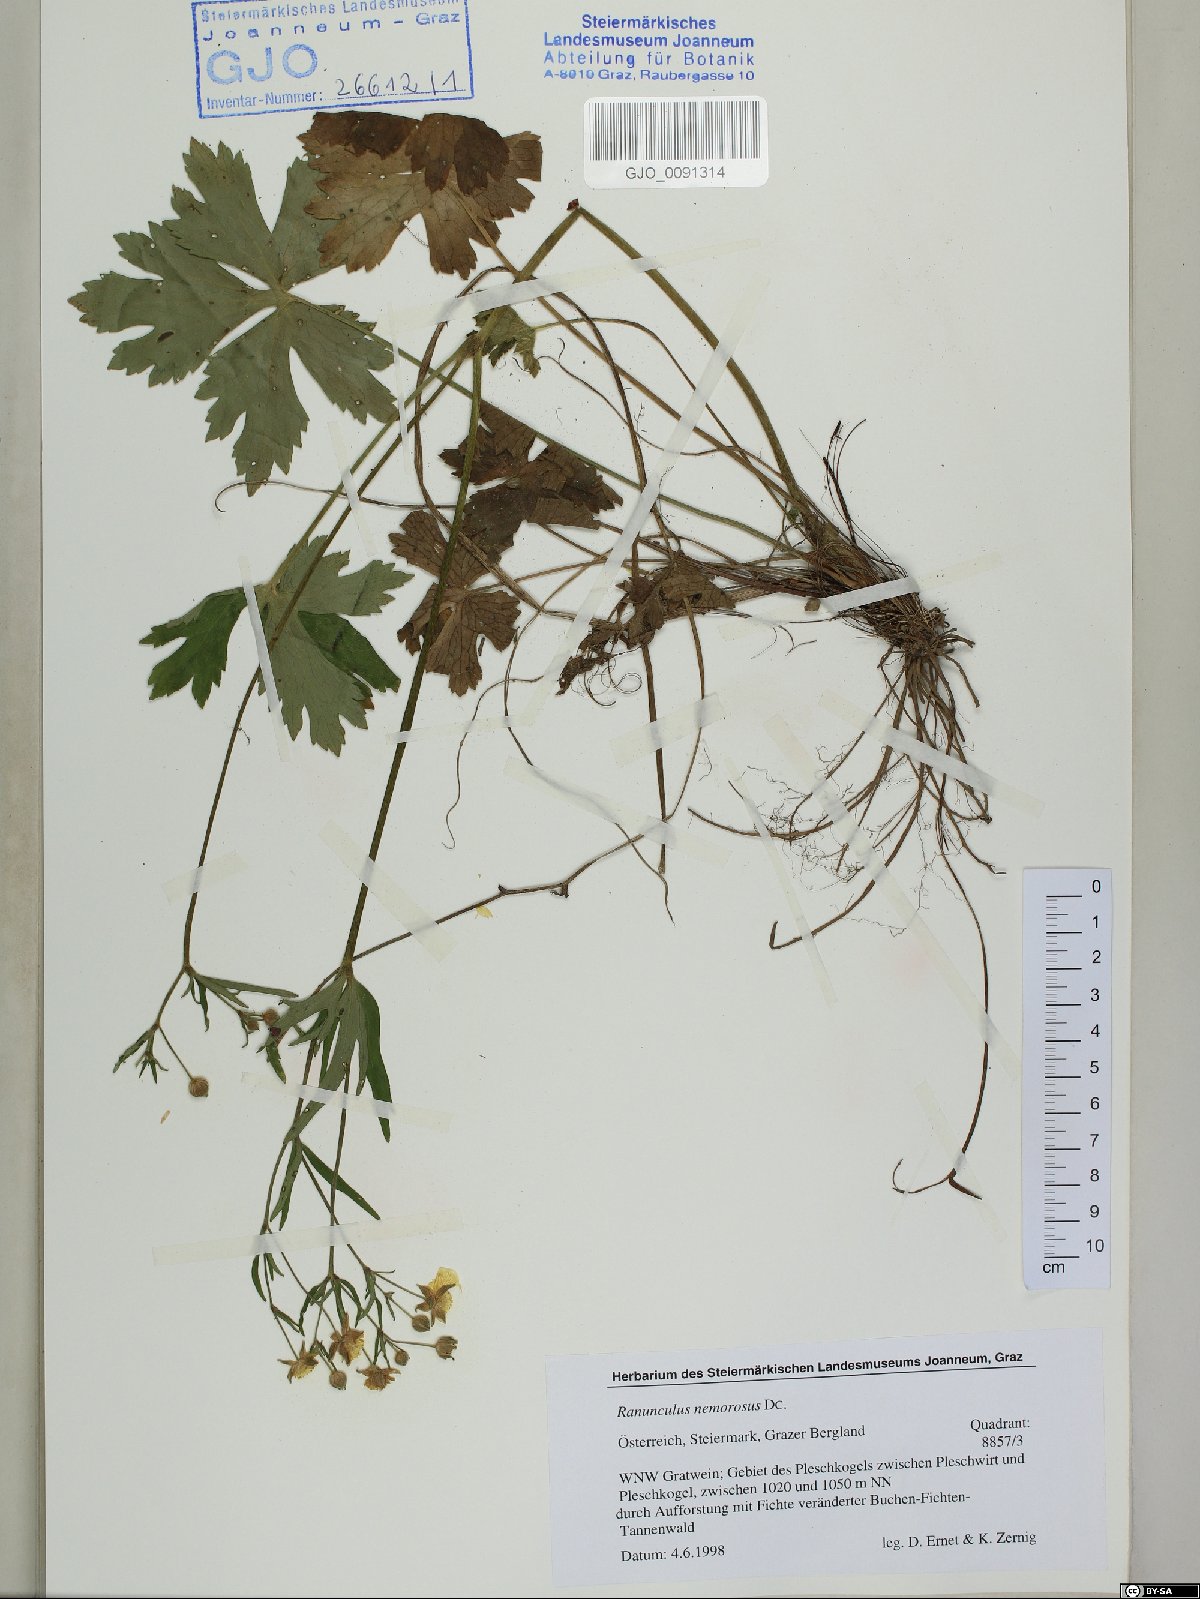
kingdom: Plantae
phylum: Tracheophyta
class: Magnoliopsida
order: Ranunculales
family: Ranunculaceae
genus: Ranunculus
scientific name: Ranunculus polyanthemos
